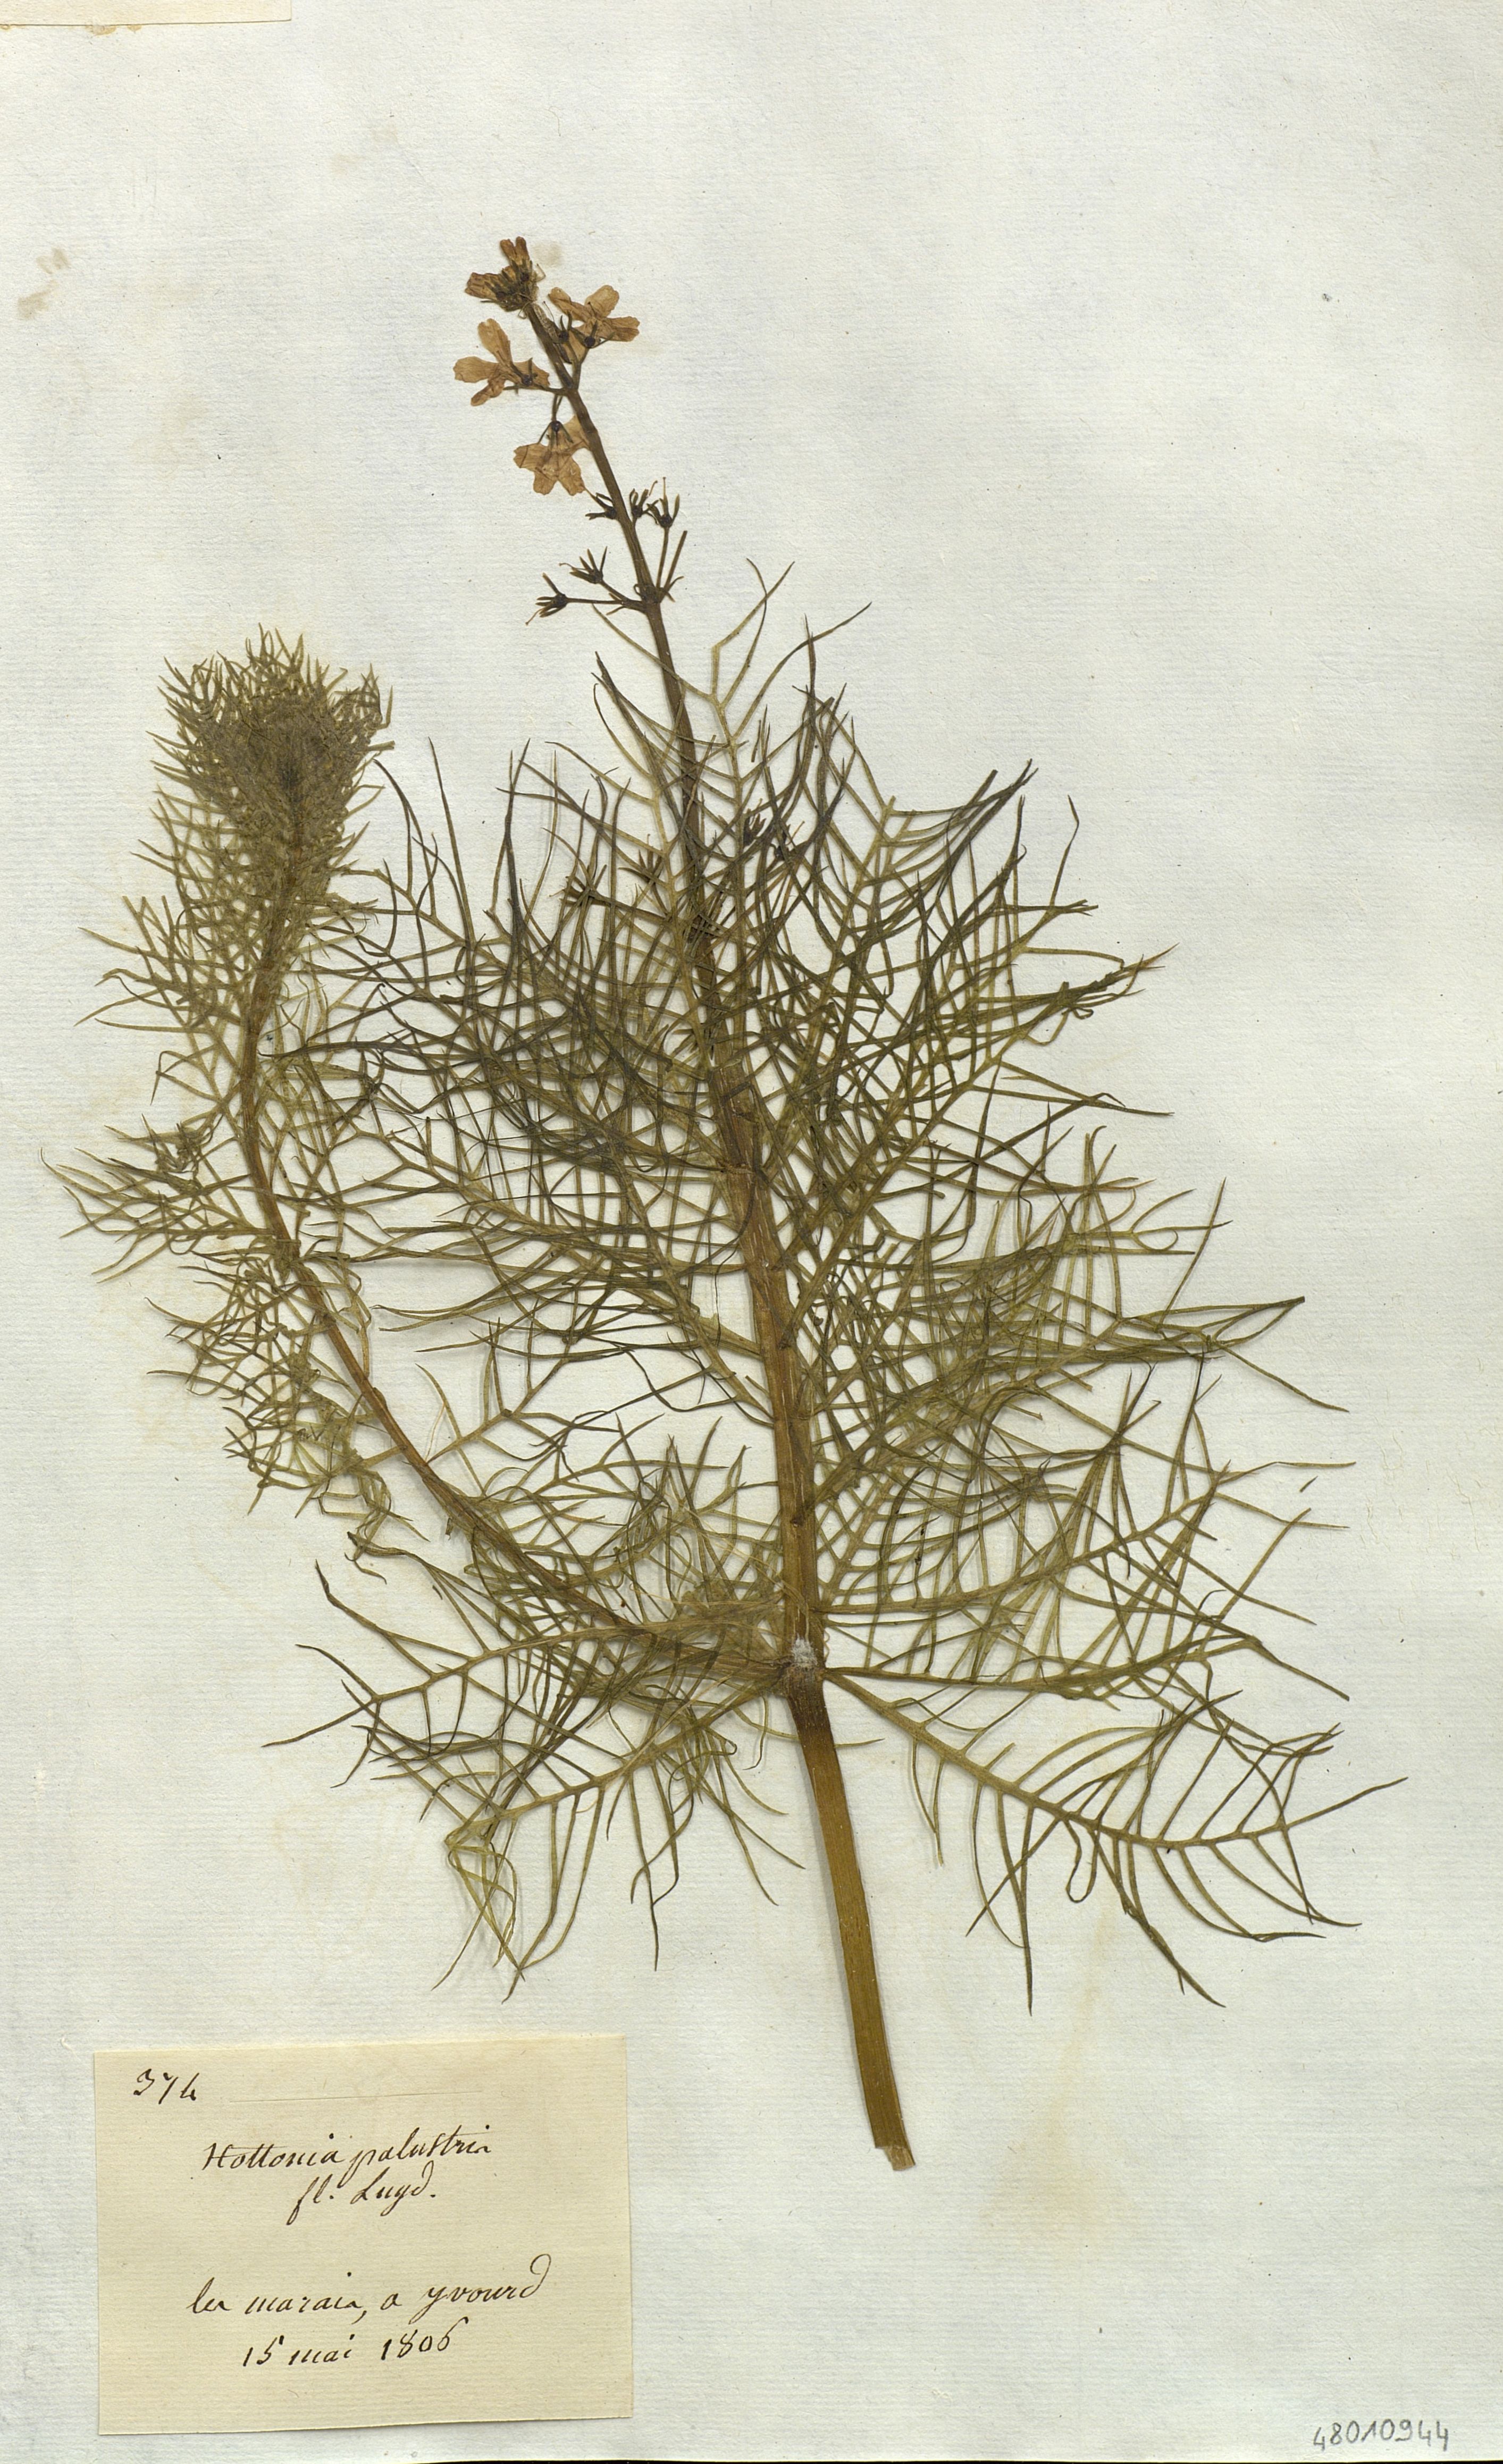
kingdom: Plantae
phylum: Tracheophyta
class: Magnoliopsida
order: Ericales
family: Primulaceae
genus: Hottonia
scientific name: Hottonia palustris
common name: Water-violet
